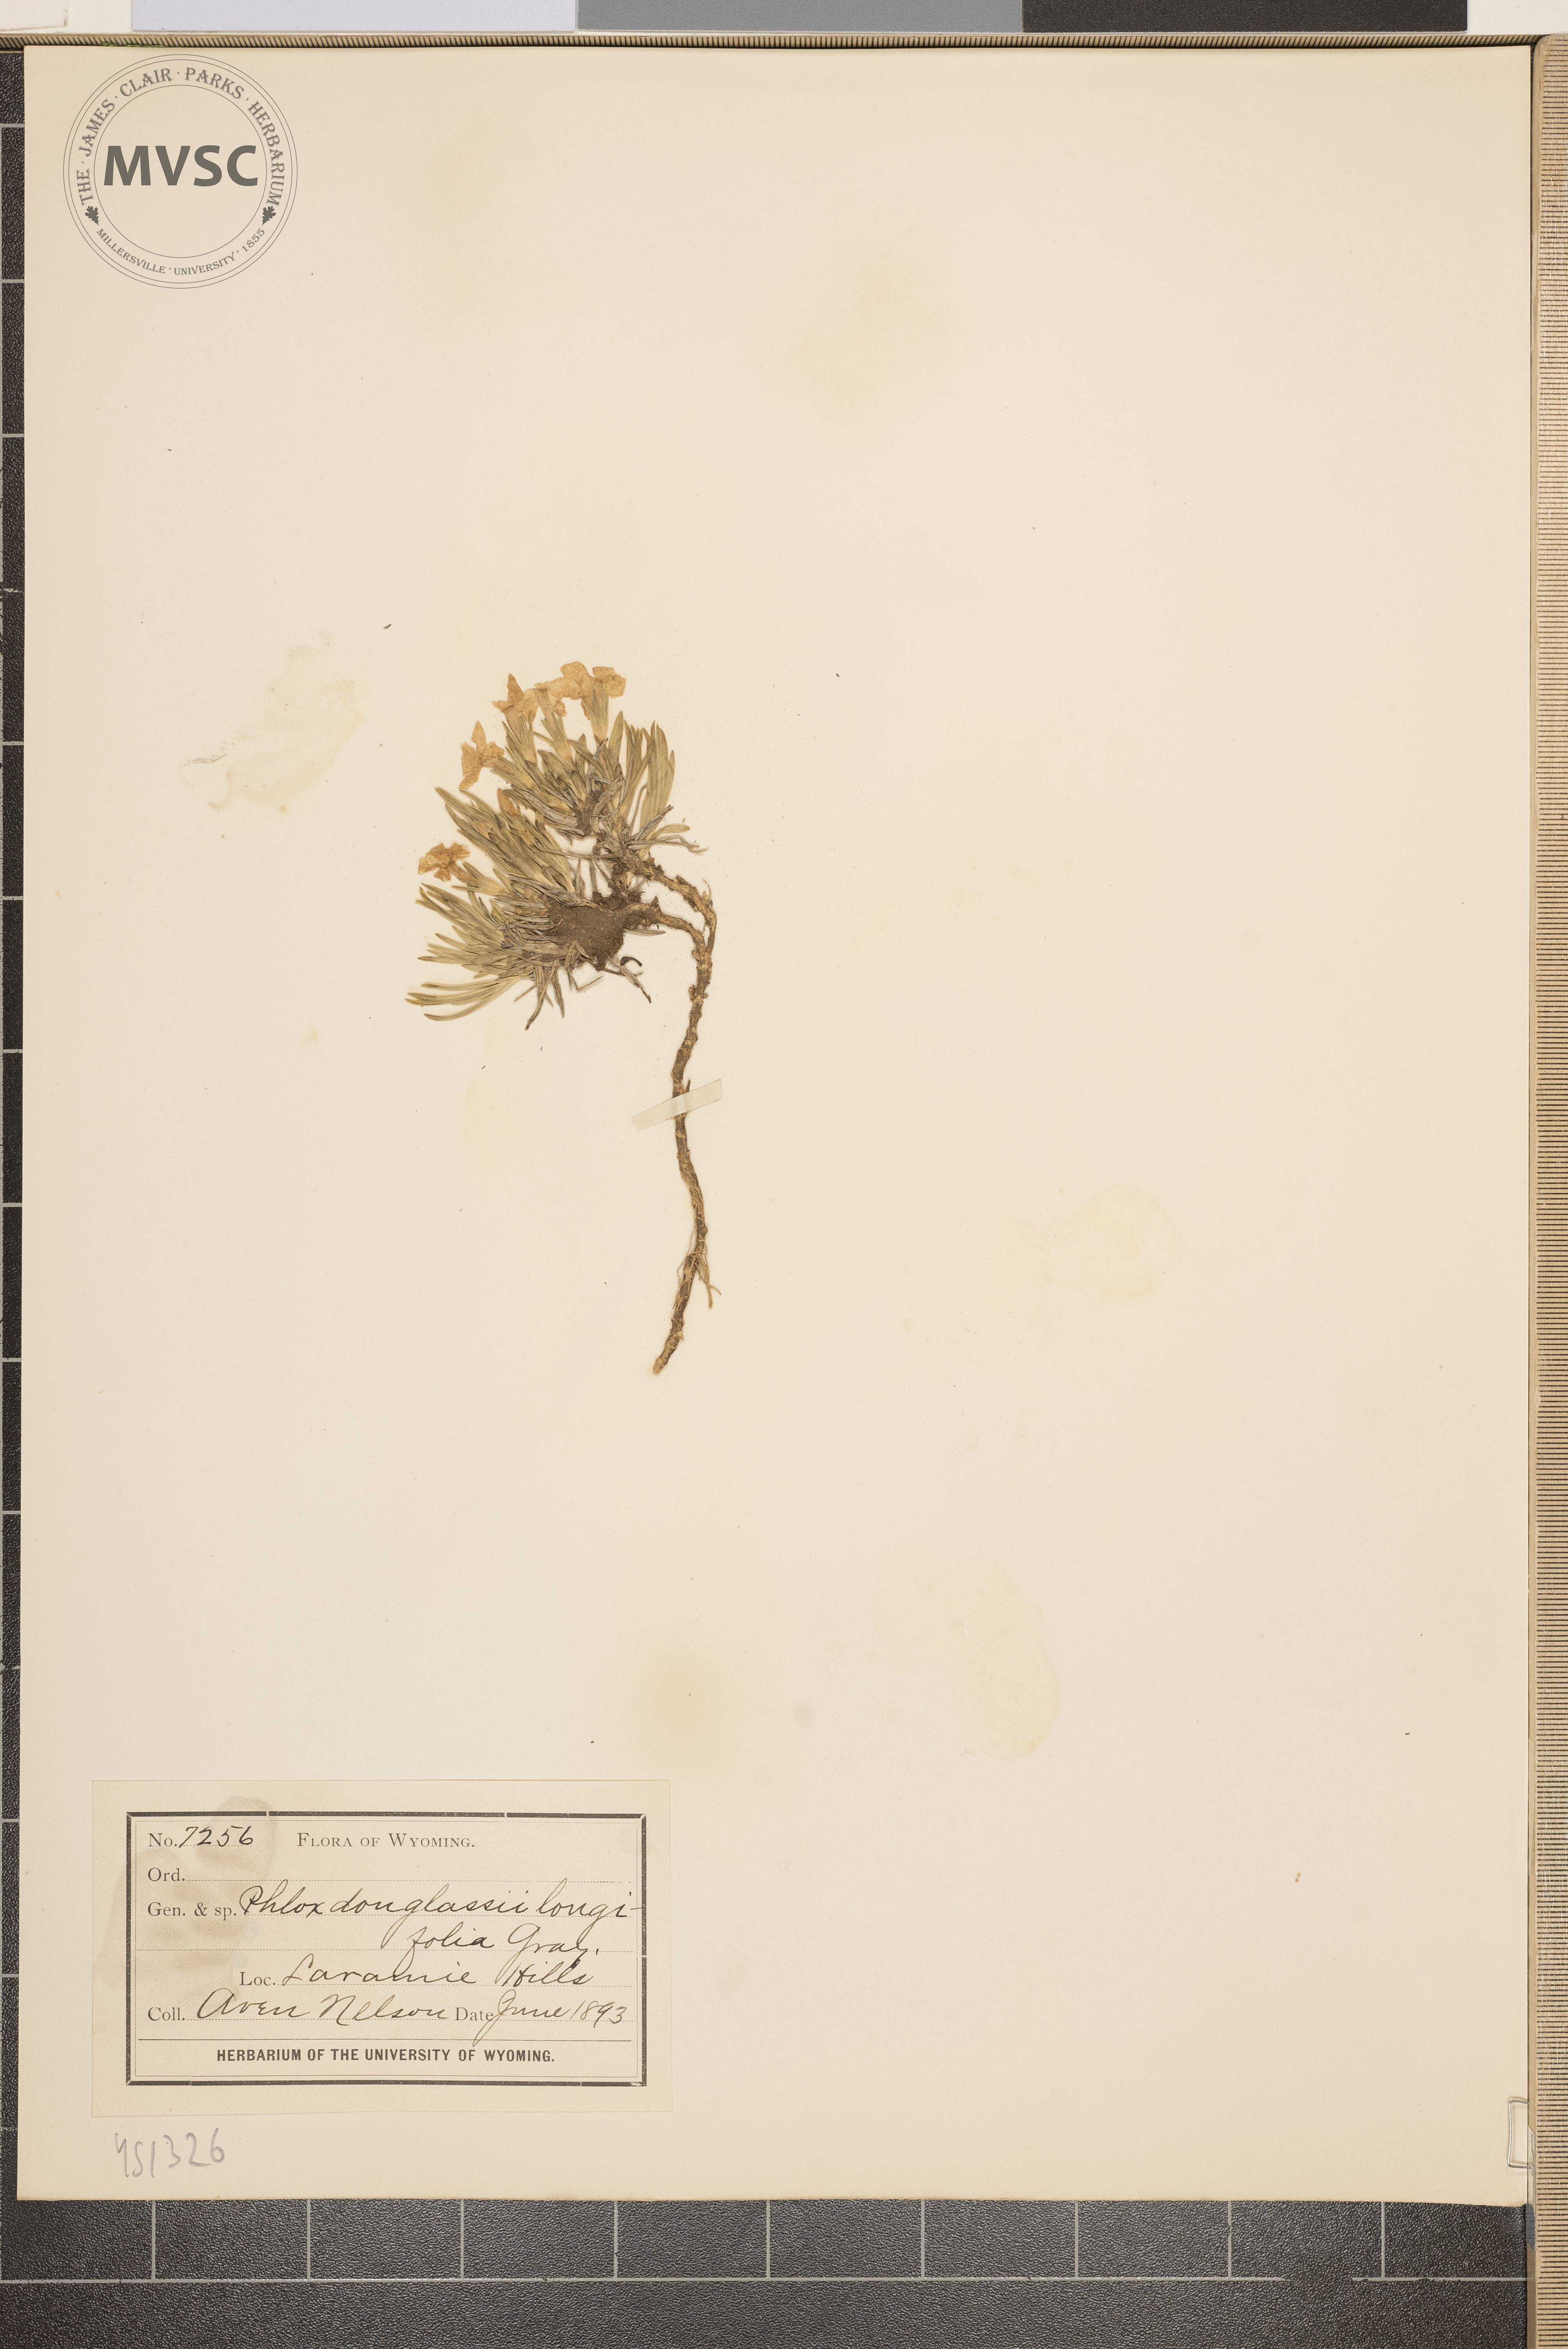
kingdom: Plantae
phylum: Tracheophyta
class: Magnoliopsida
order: Ericales
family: Polemoniaceae
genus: Phlox
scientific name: Phlox douglasii
